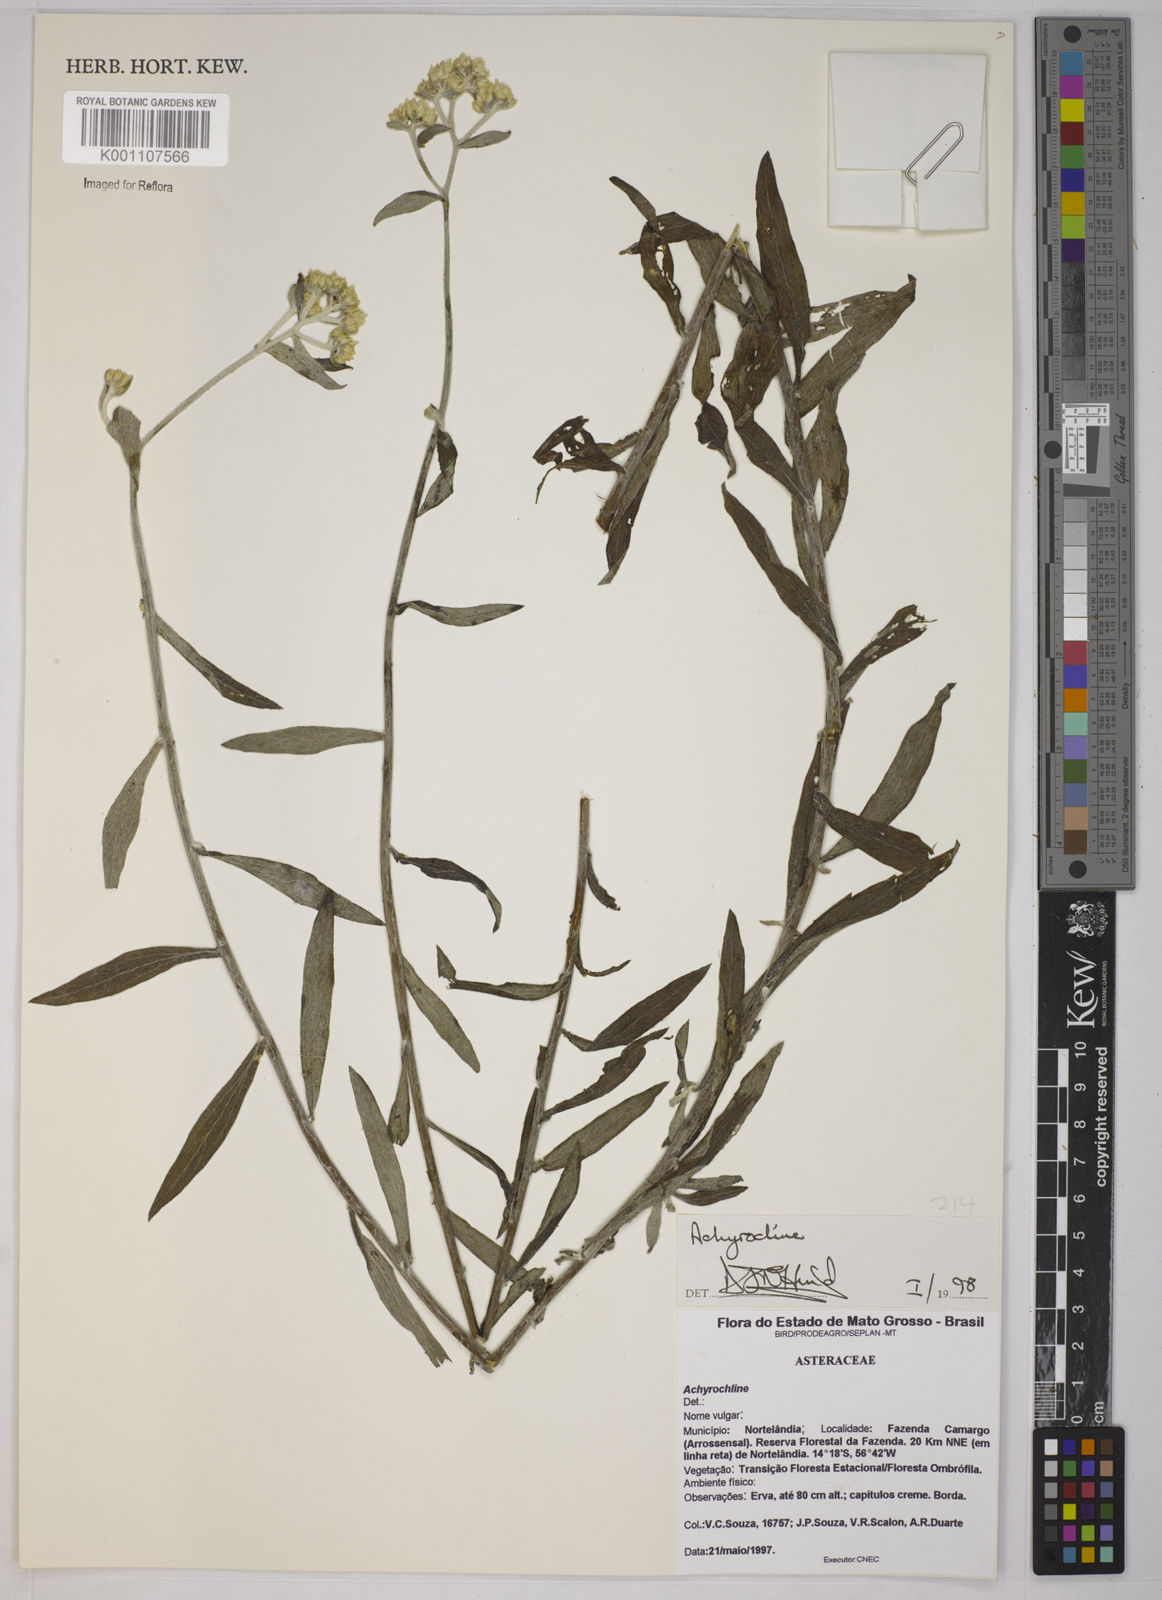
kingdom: Plantae
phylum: Tracheophyta
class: Magnoliopsida
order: Asterales
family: Asteraceae
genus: Achyrocline
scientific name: Achyrocline
